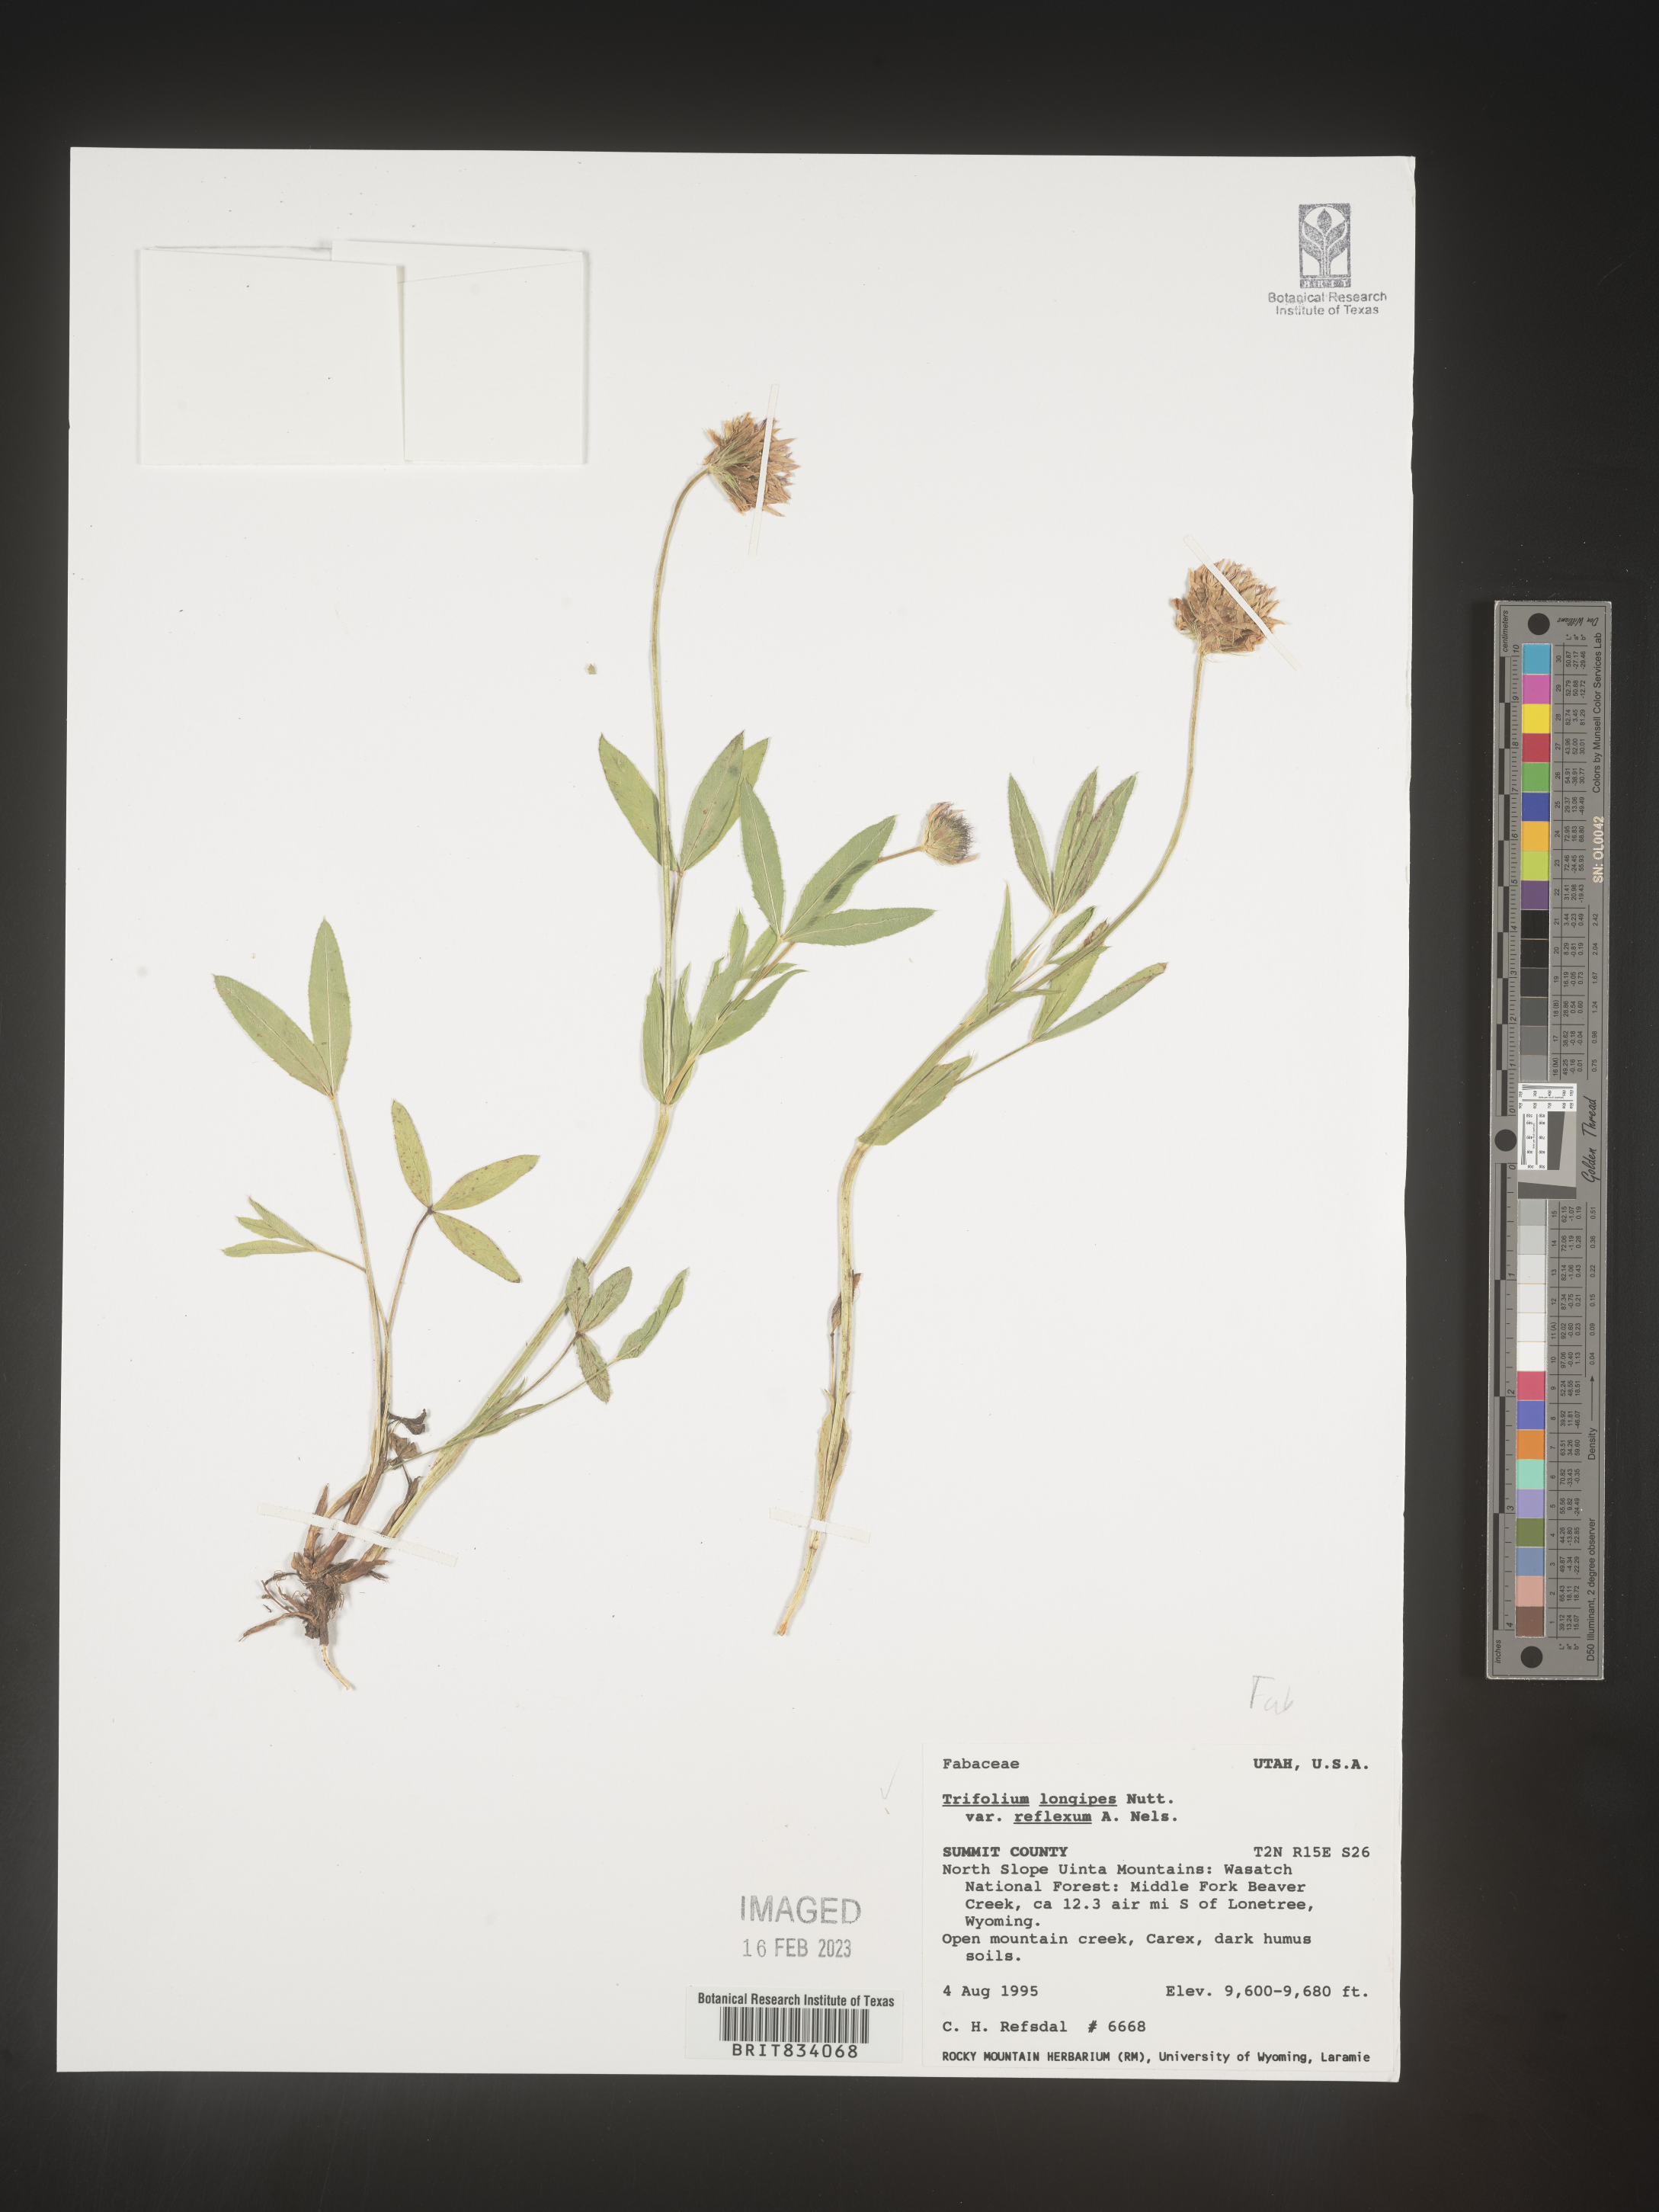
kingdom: Plantae
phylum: Tracheophyta
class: Magnoliopsida
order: Fabales
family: Fabaceae
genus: Trifolium
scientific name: Trifolium
